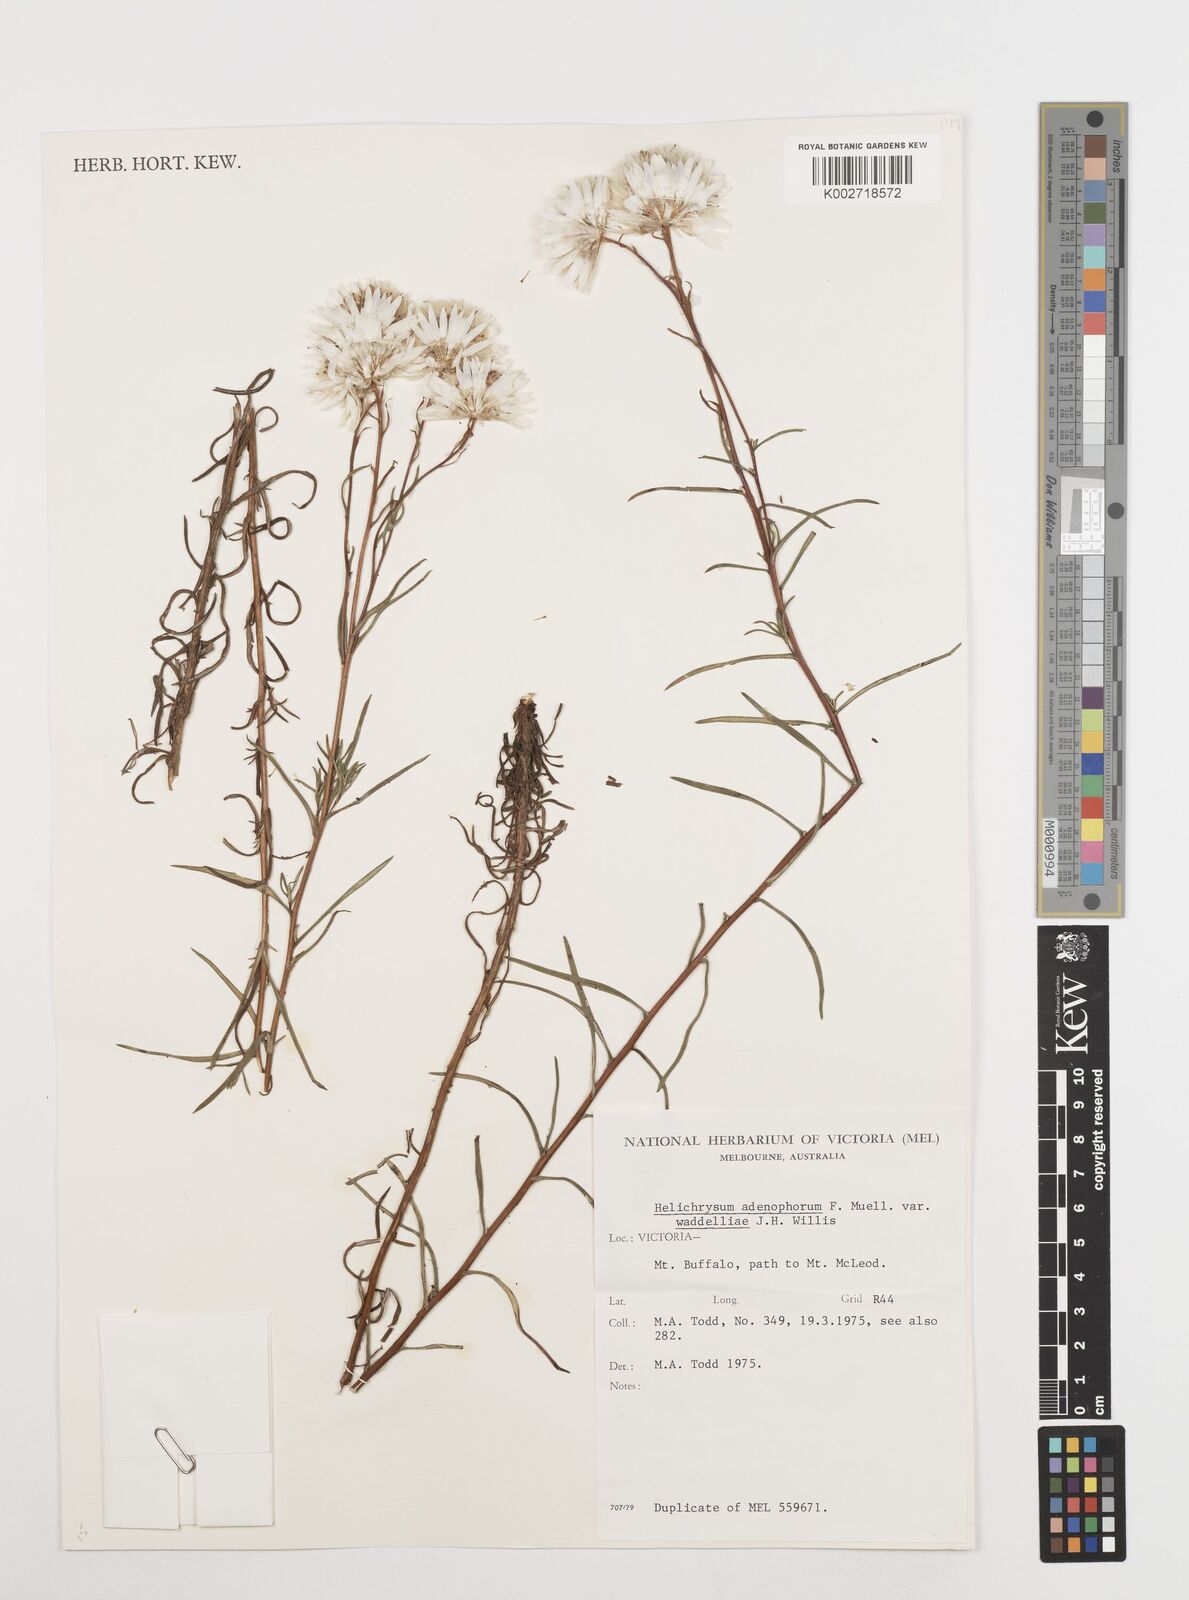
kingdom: Plantae
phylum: Tracheophyta
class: Magnoliopsida
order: Asterales
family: Asteraceae
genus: Coronidium
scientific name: Coronidium waddelliae
